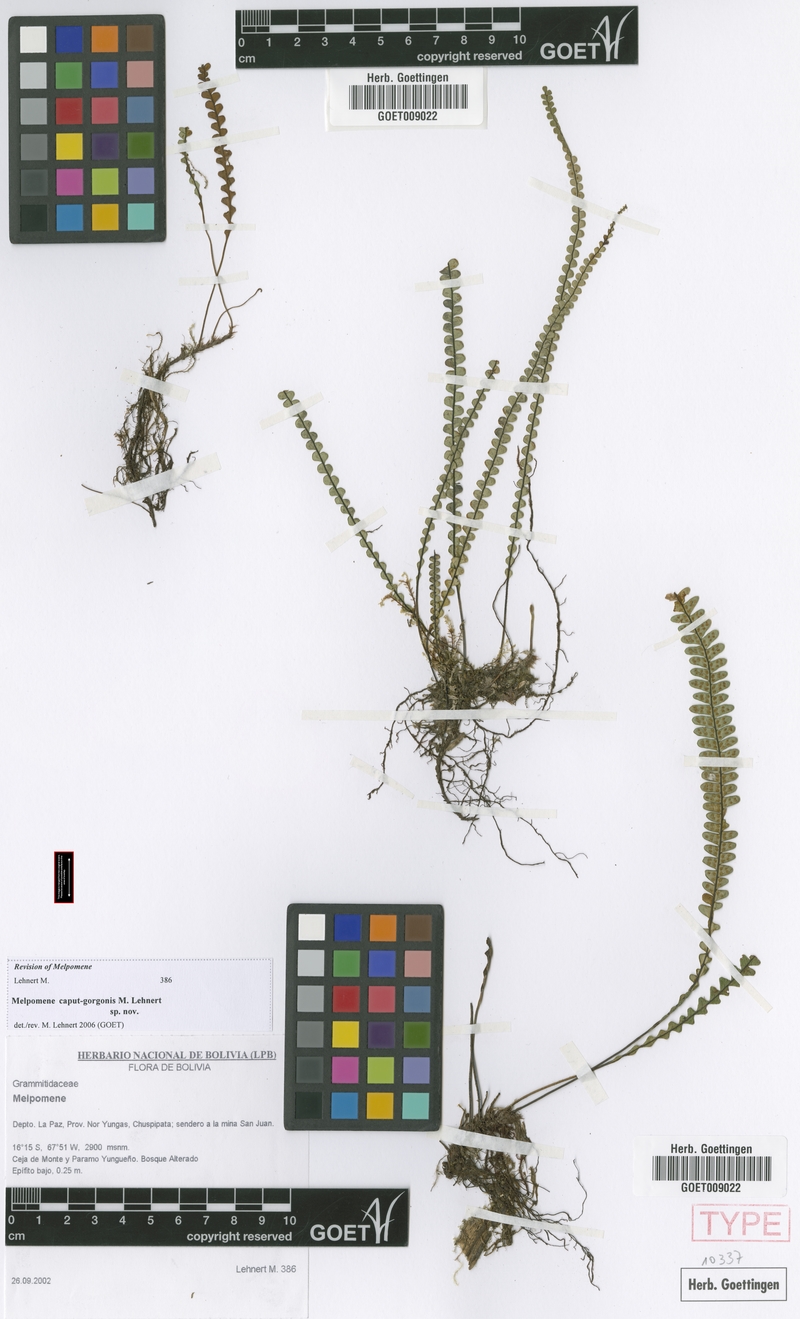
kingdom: Plantae
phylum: Tracheophyta
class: Polypodiopsida
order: Polypodiales
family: Polypodiaceae
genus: Melpomene
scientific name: Melpomene caput-gorgonis
